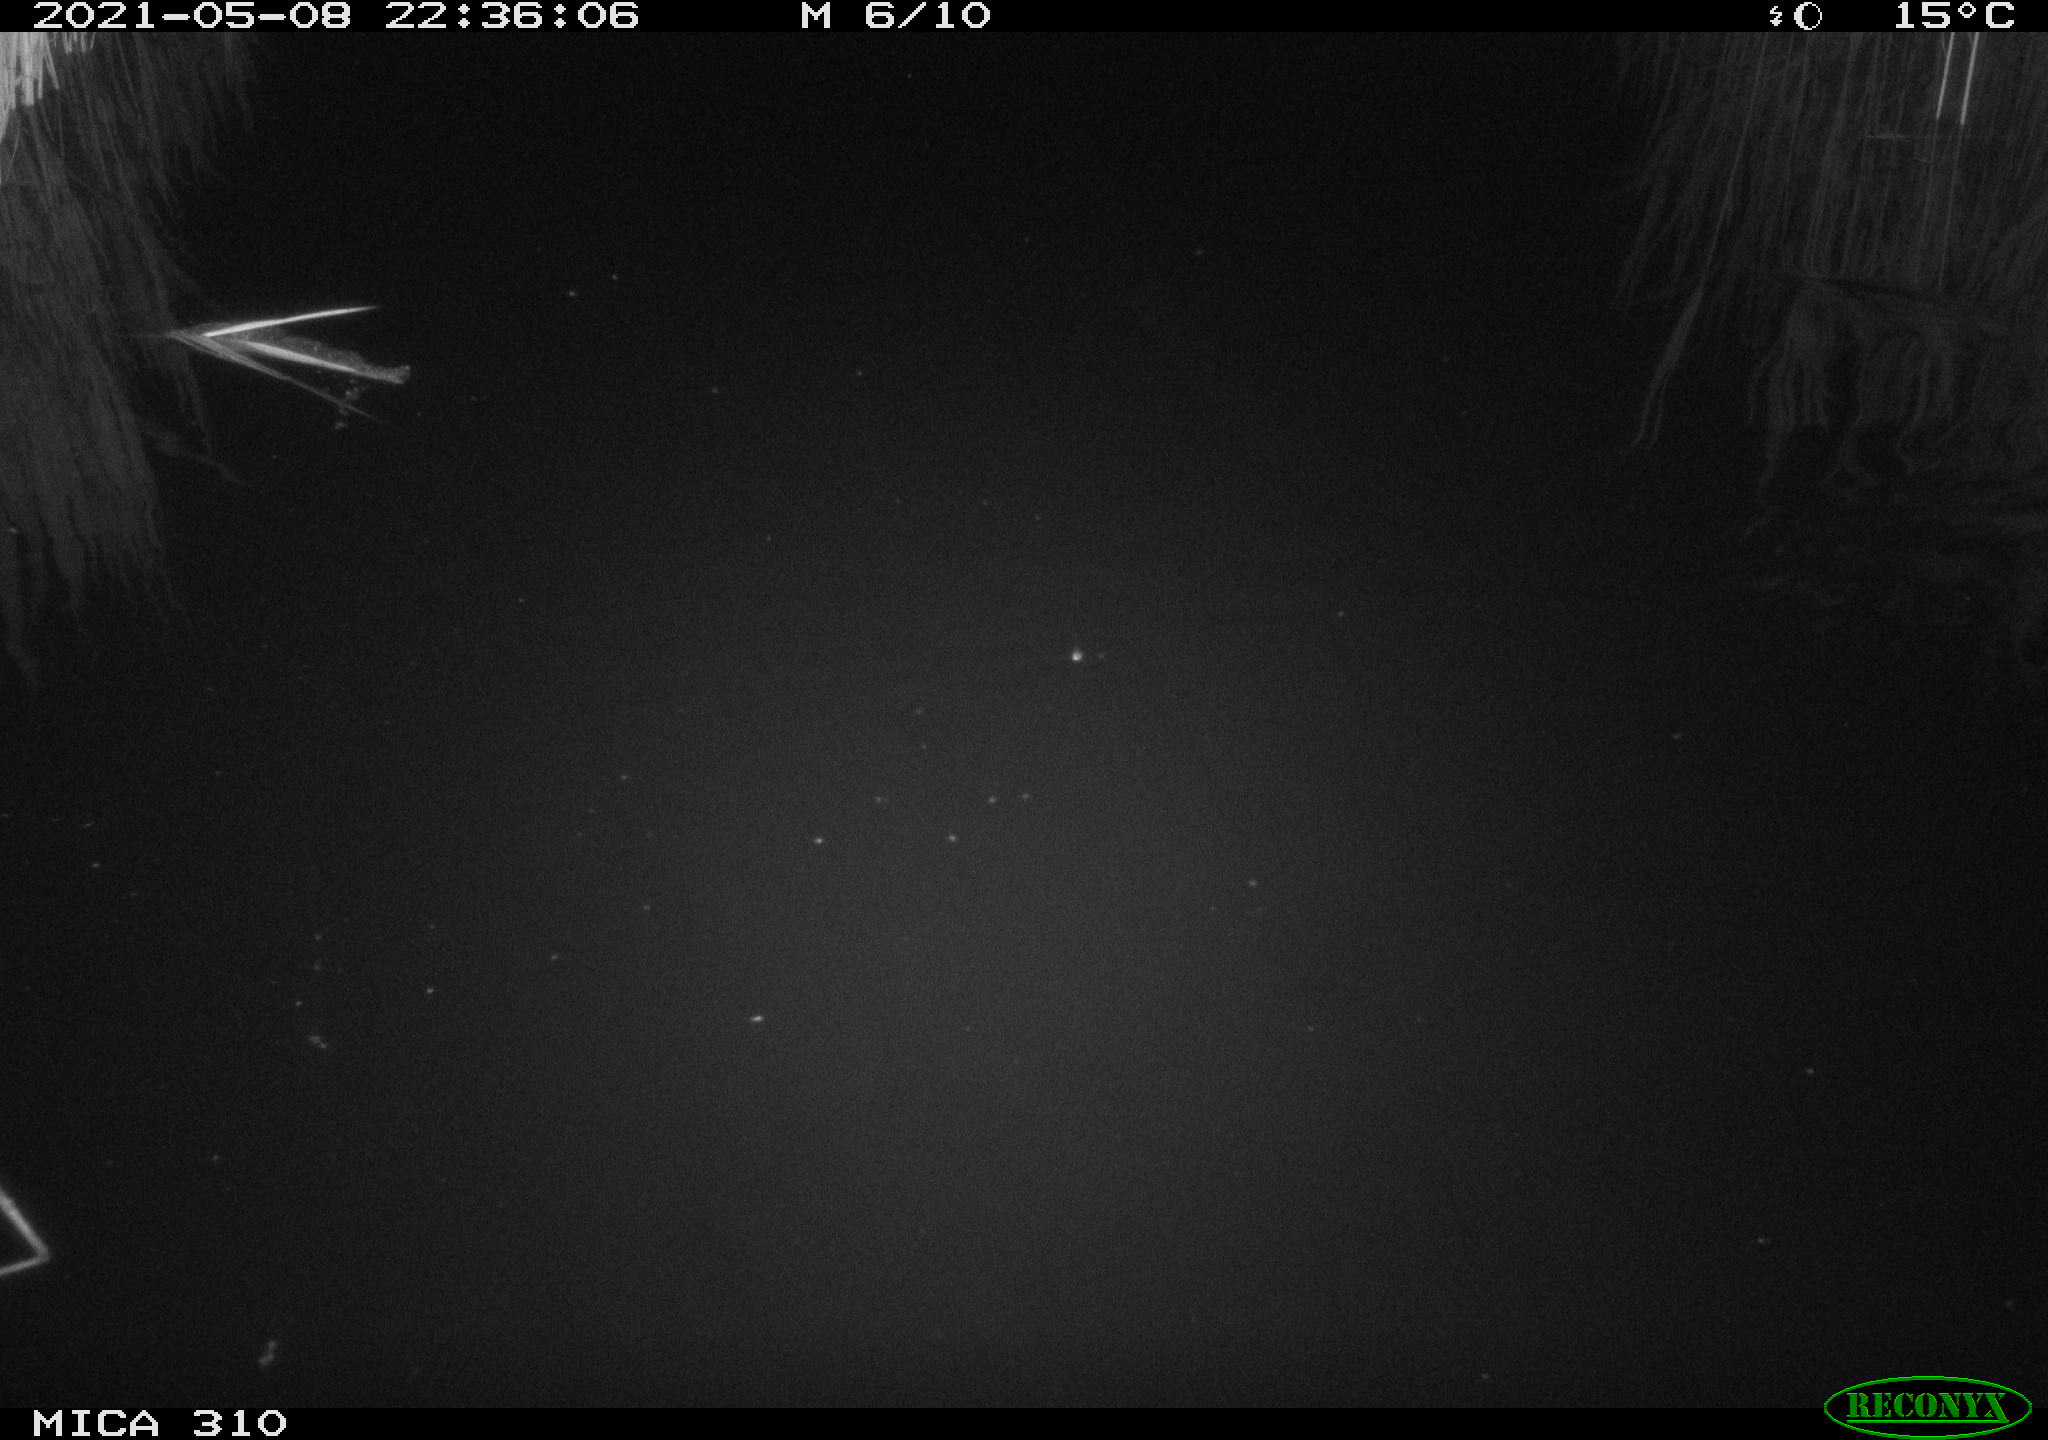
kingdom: Animalia
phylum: Chordata
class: Mammalia
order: Rodentia
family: Muridae
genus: Rattus
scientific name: Rattus norvegicus
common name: Brown rat
